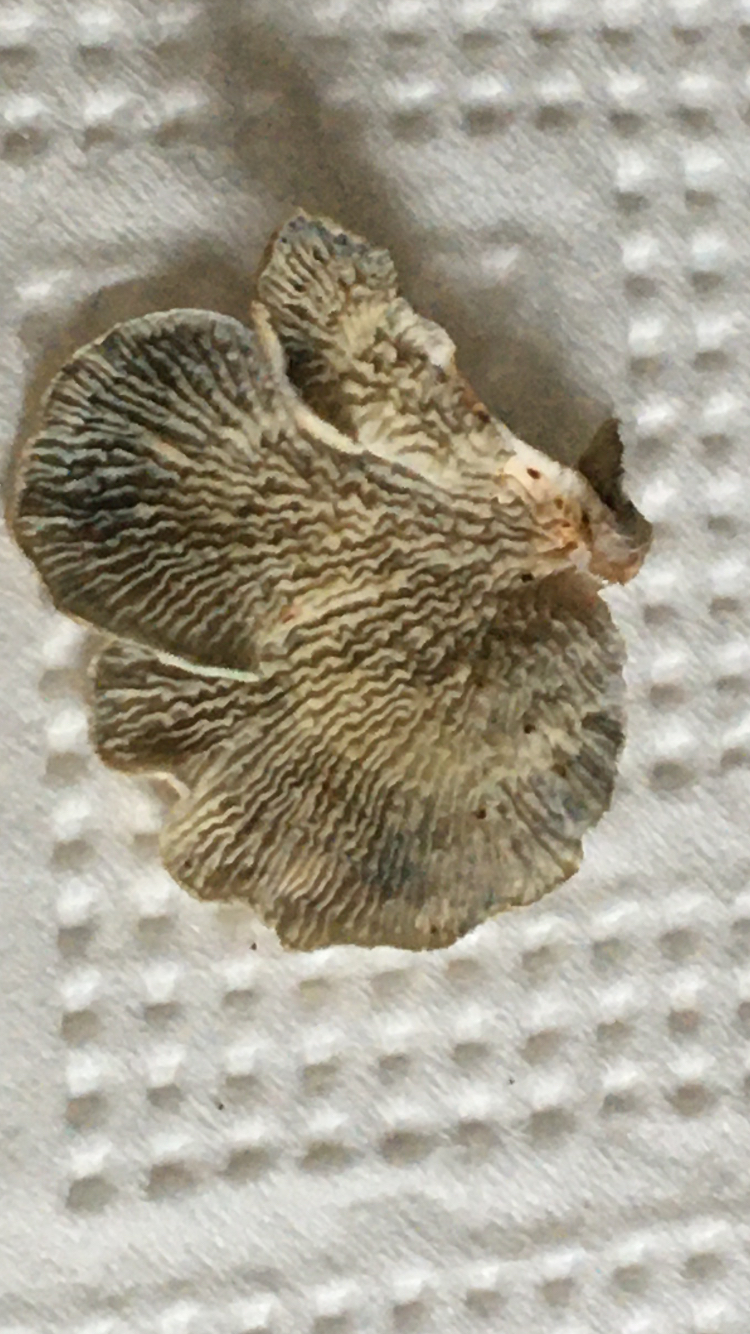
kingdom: Fungi
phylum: Basidiomycota
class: Agaricomycetes
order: Amylocorticiales
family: Amylocorticiaceae
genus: Plicaturopsis
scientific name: Plicaturopsis crispa
